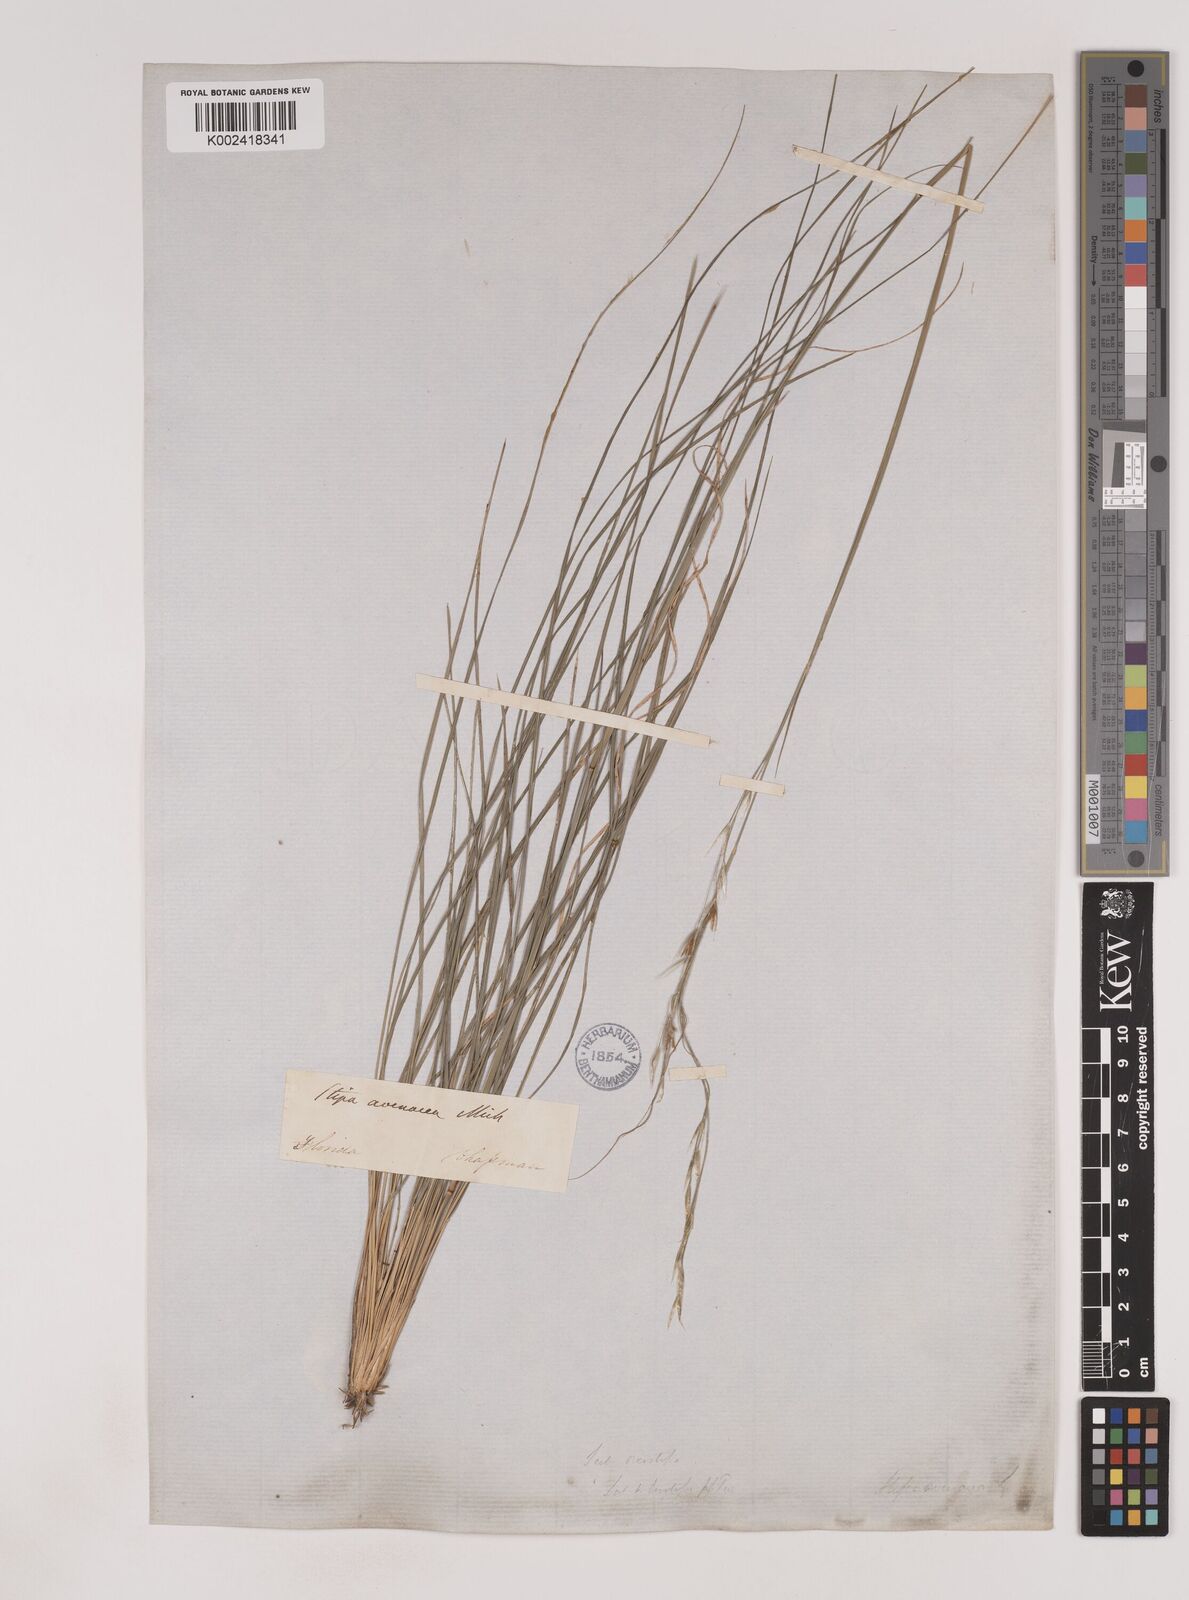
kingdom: Plantae
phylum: Tracheophyta
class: Liliopsida
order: Poales
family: Poaceae
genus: Piptochaetium
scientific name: Piptochaetium avenaceum
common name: Black bunchgrass
